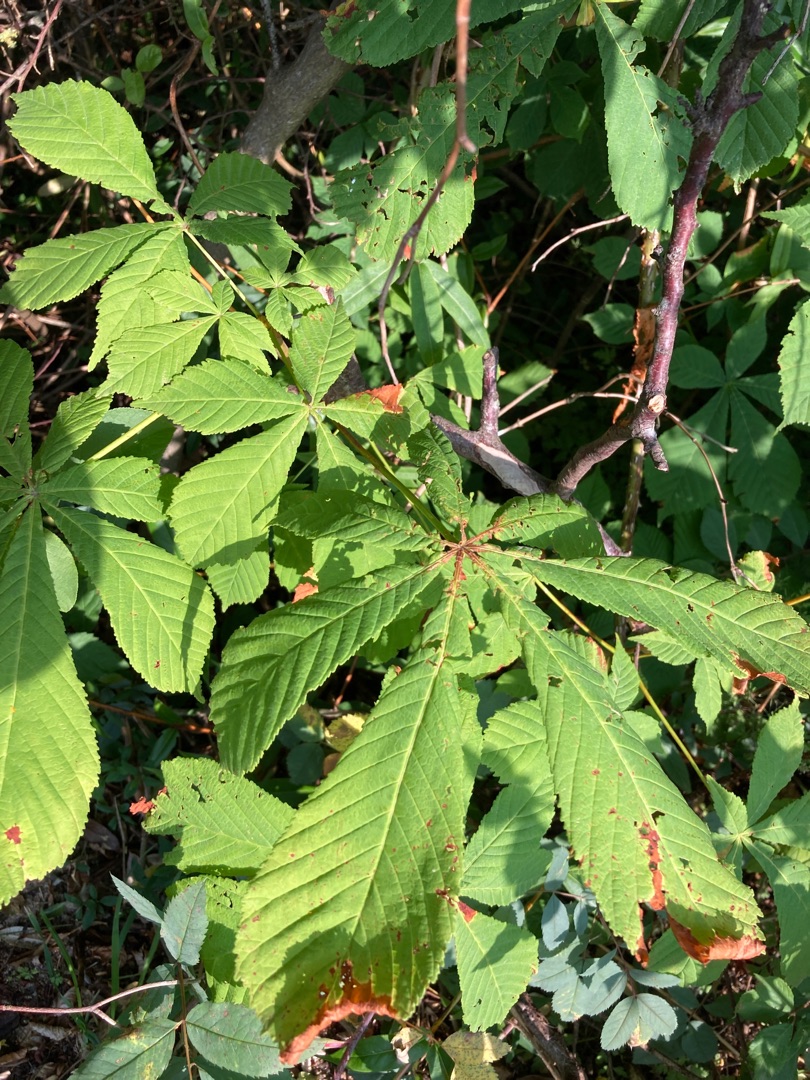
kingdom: Plantae
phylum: Tracheophyta
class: Magnoliopsida
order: Sapindales
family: Sapindaceae
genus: Aesculus
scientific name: Aesculus hippocastanum
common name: Hestekastanie
